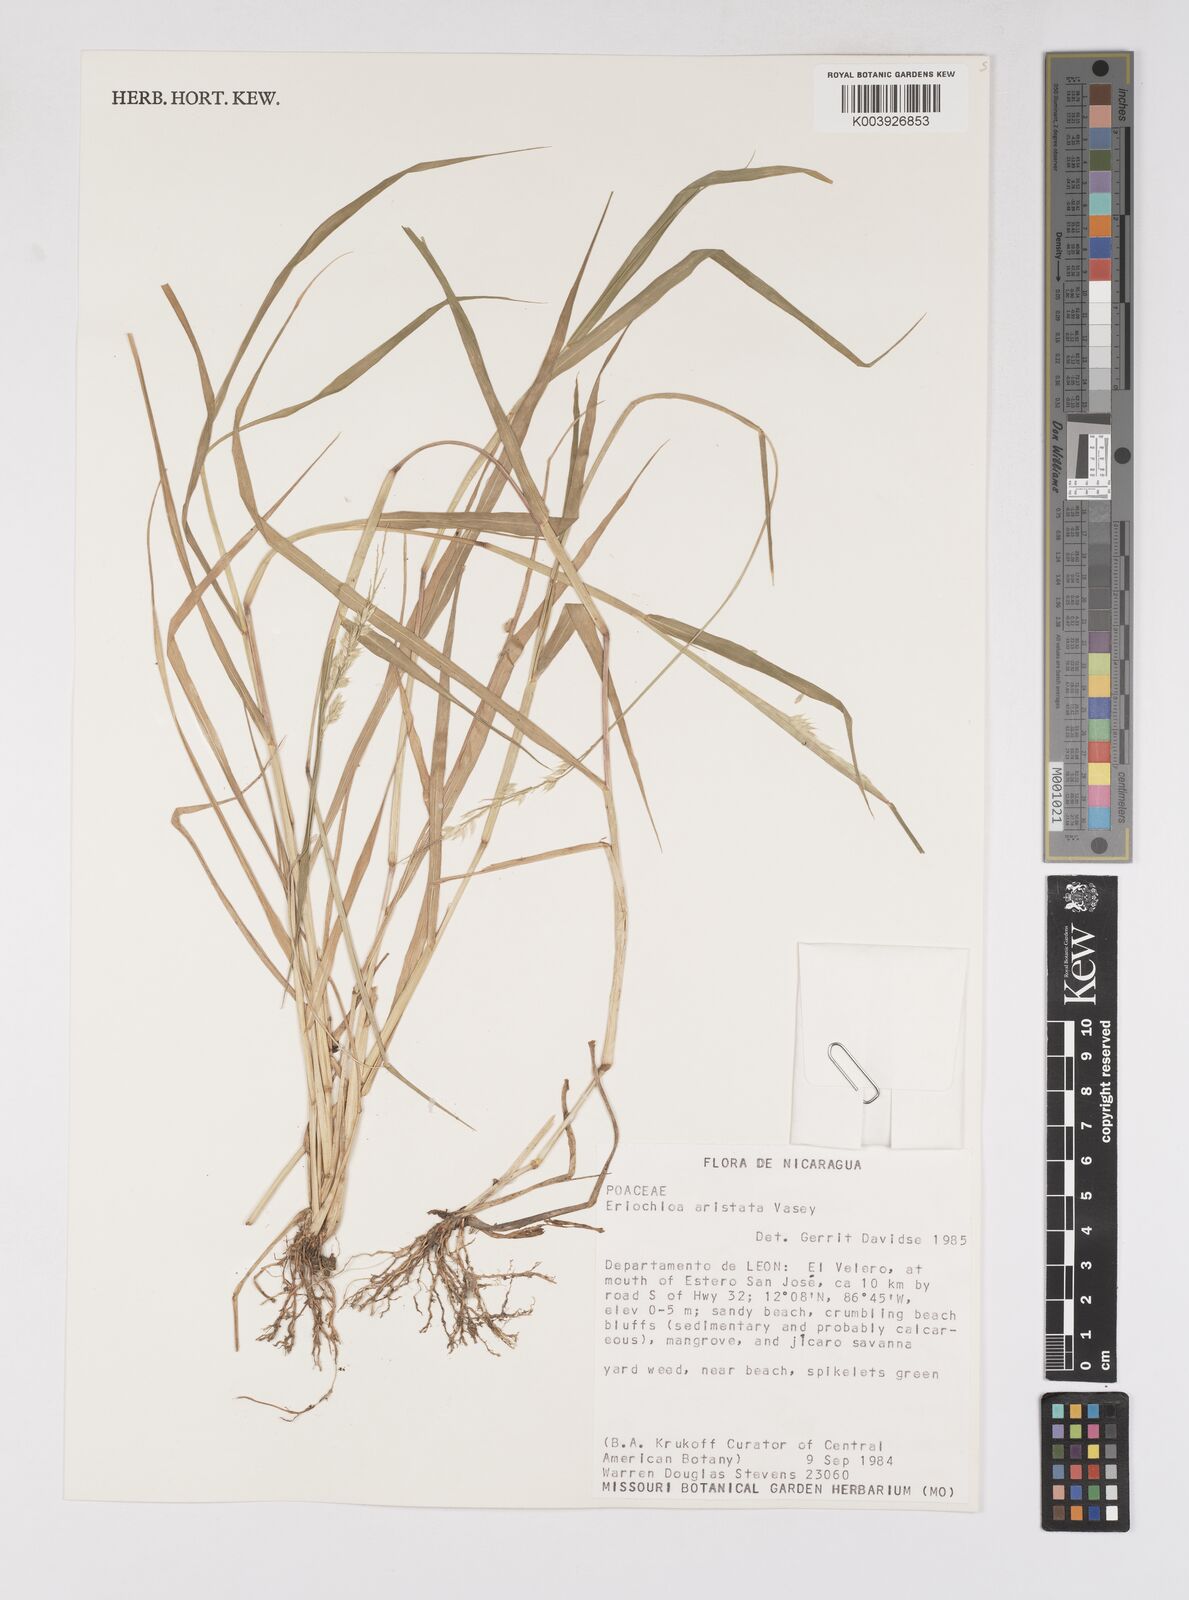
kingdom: Plantae
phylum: Tracheophyta
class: Liliopsida
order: Poales
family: Poaceae
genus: Eriochloa
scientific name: Eriochloa aristata
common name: Bearded cup grass
